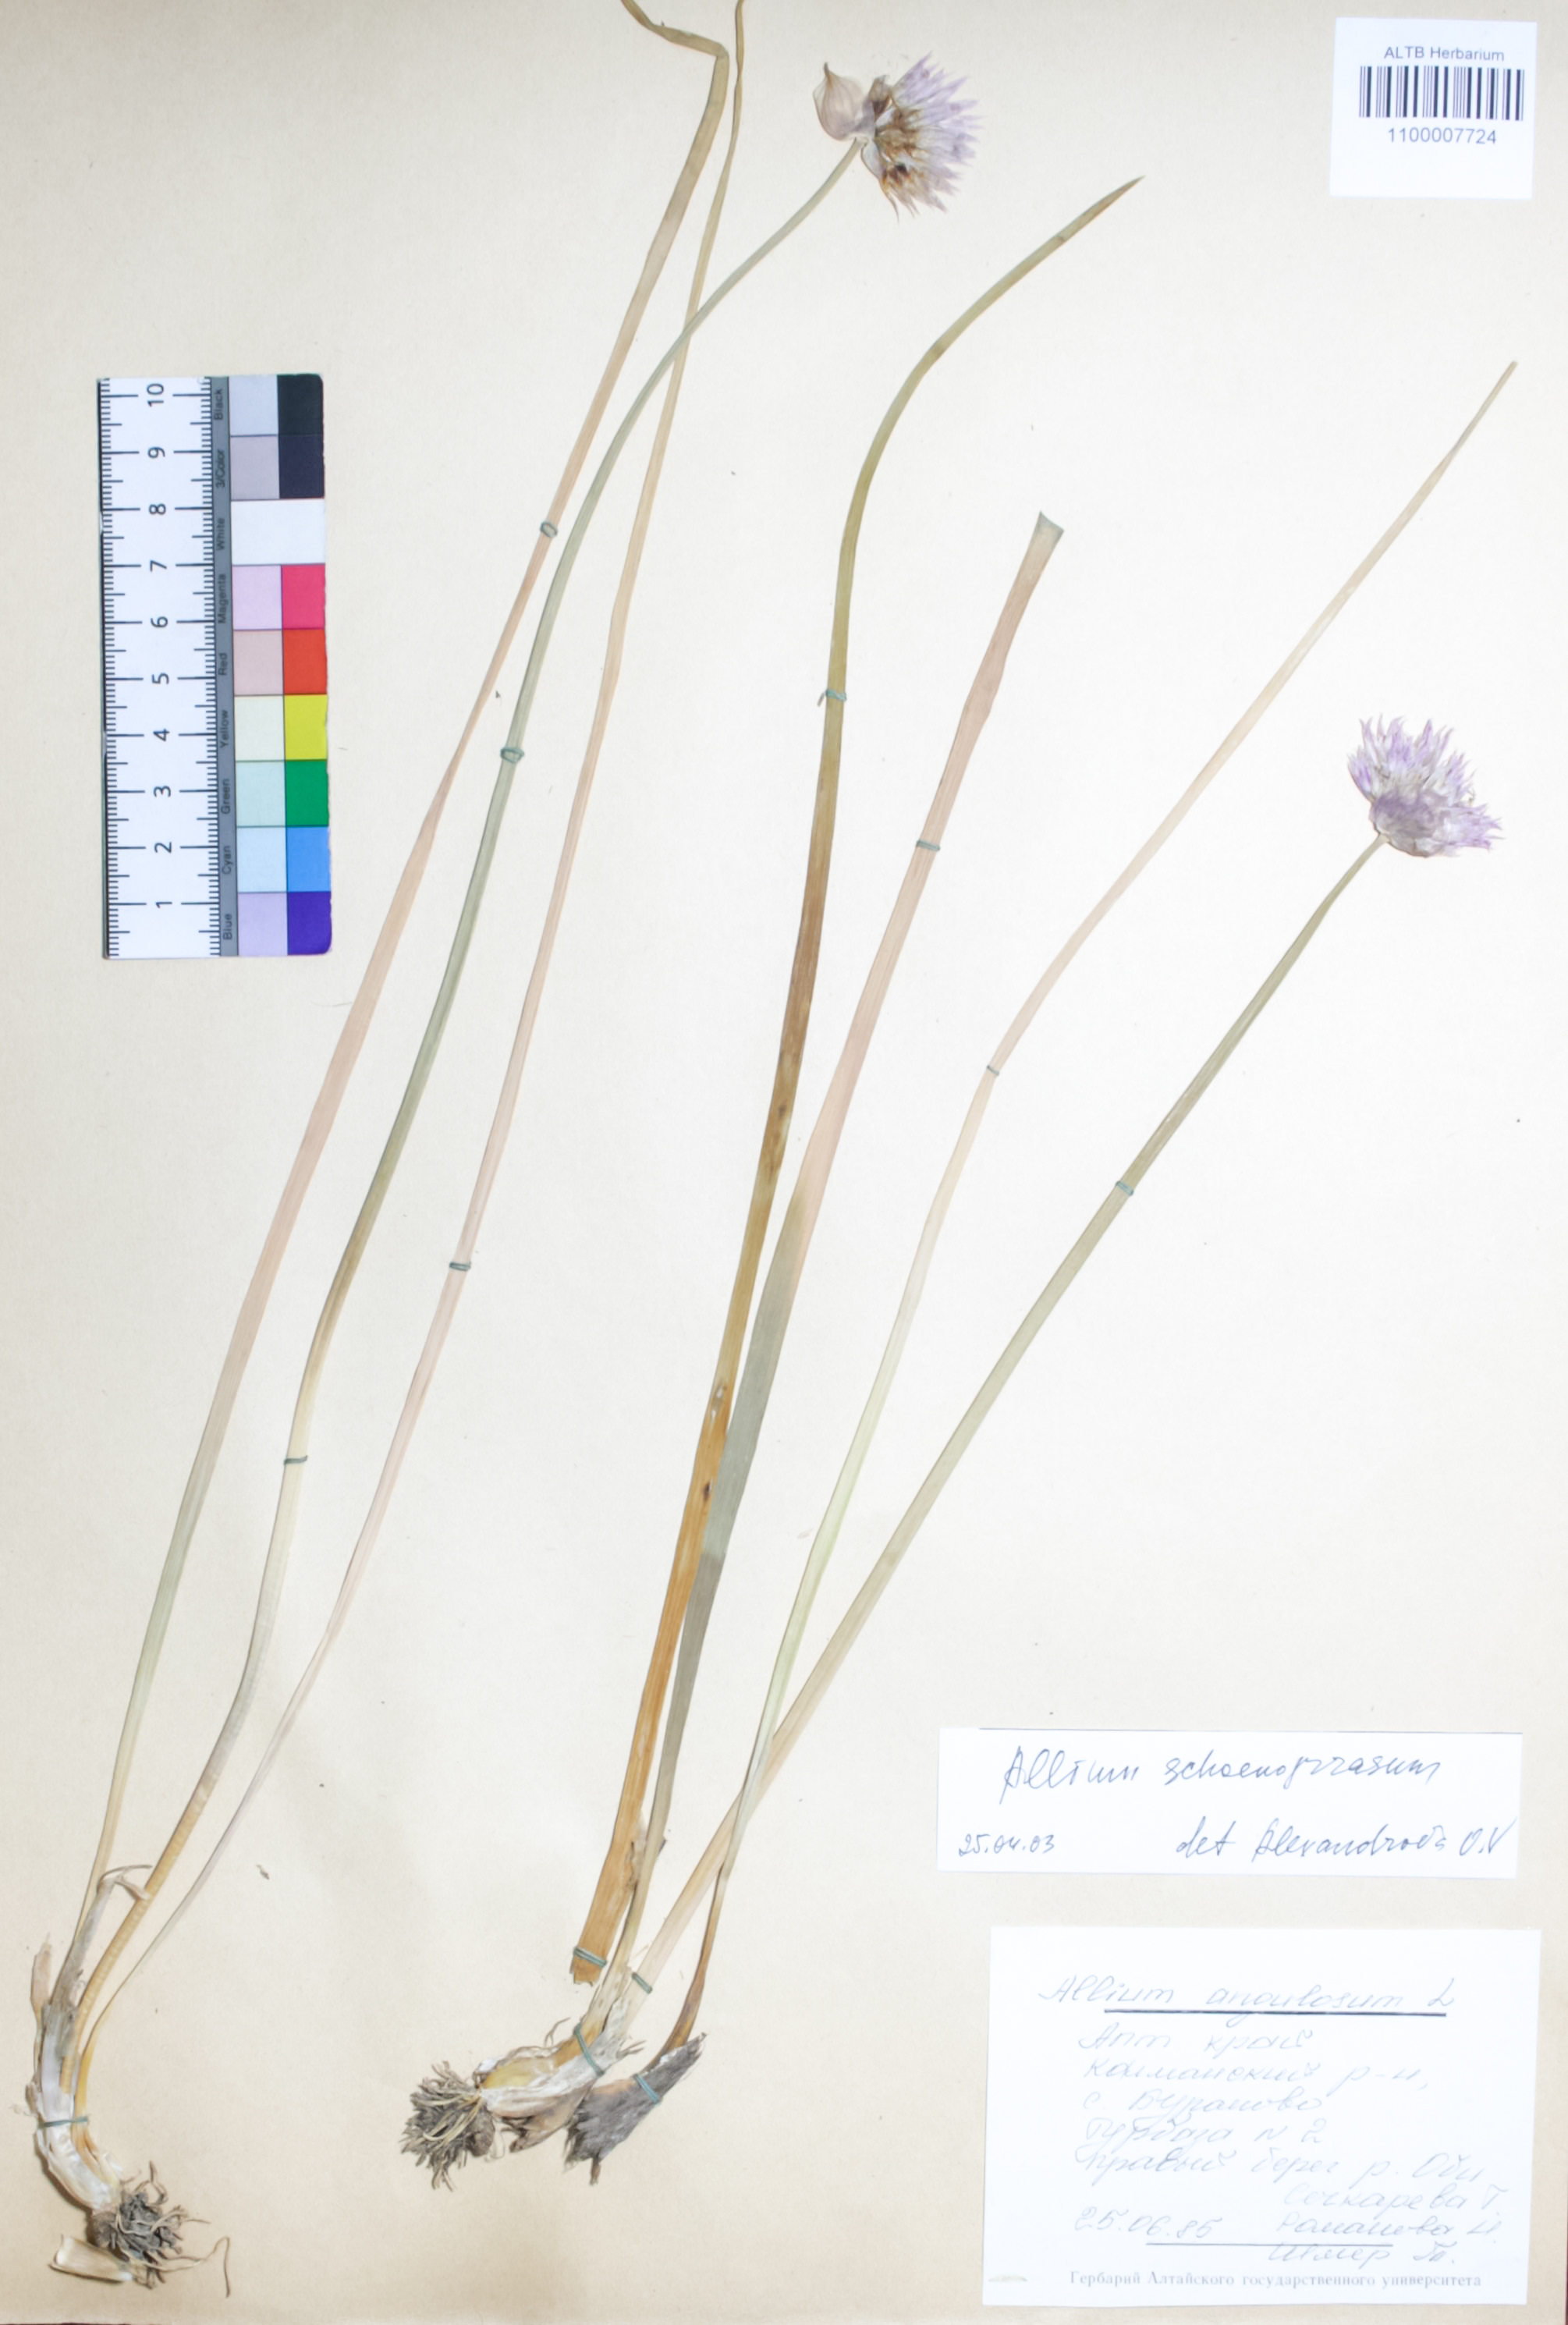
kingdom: Plantae
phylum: Tracheophyta
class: Liliopsida
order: Asparagales
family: Amaryllidaceae
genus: Allium
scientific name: Allium schoenoprasum
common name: Chives
